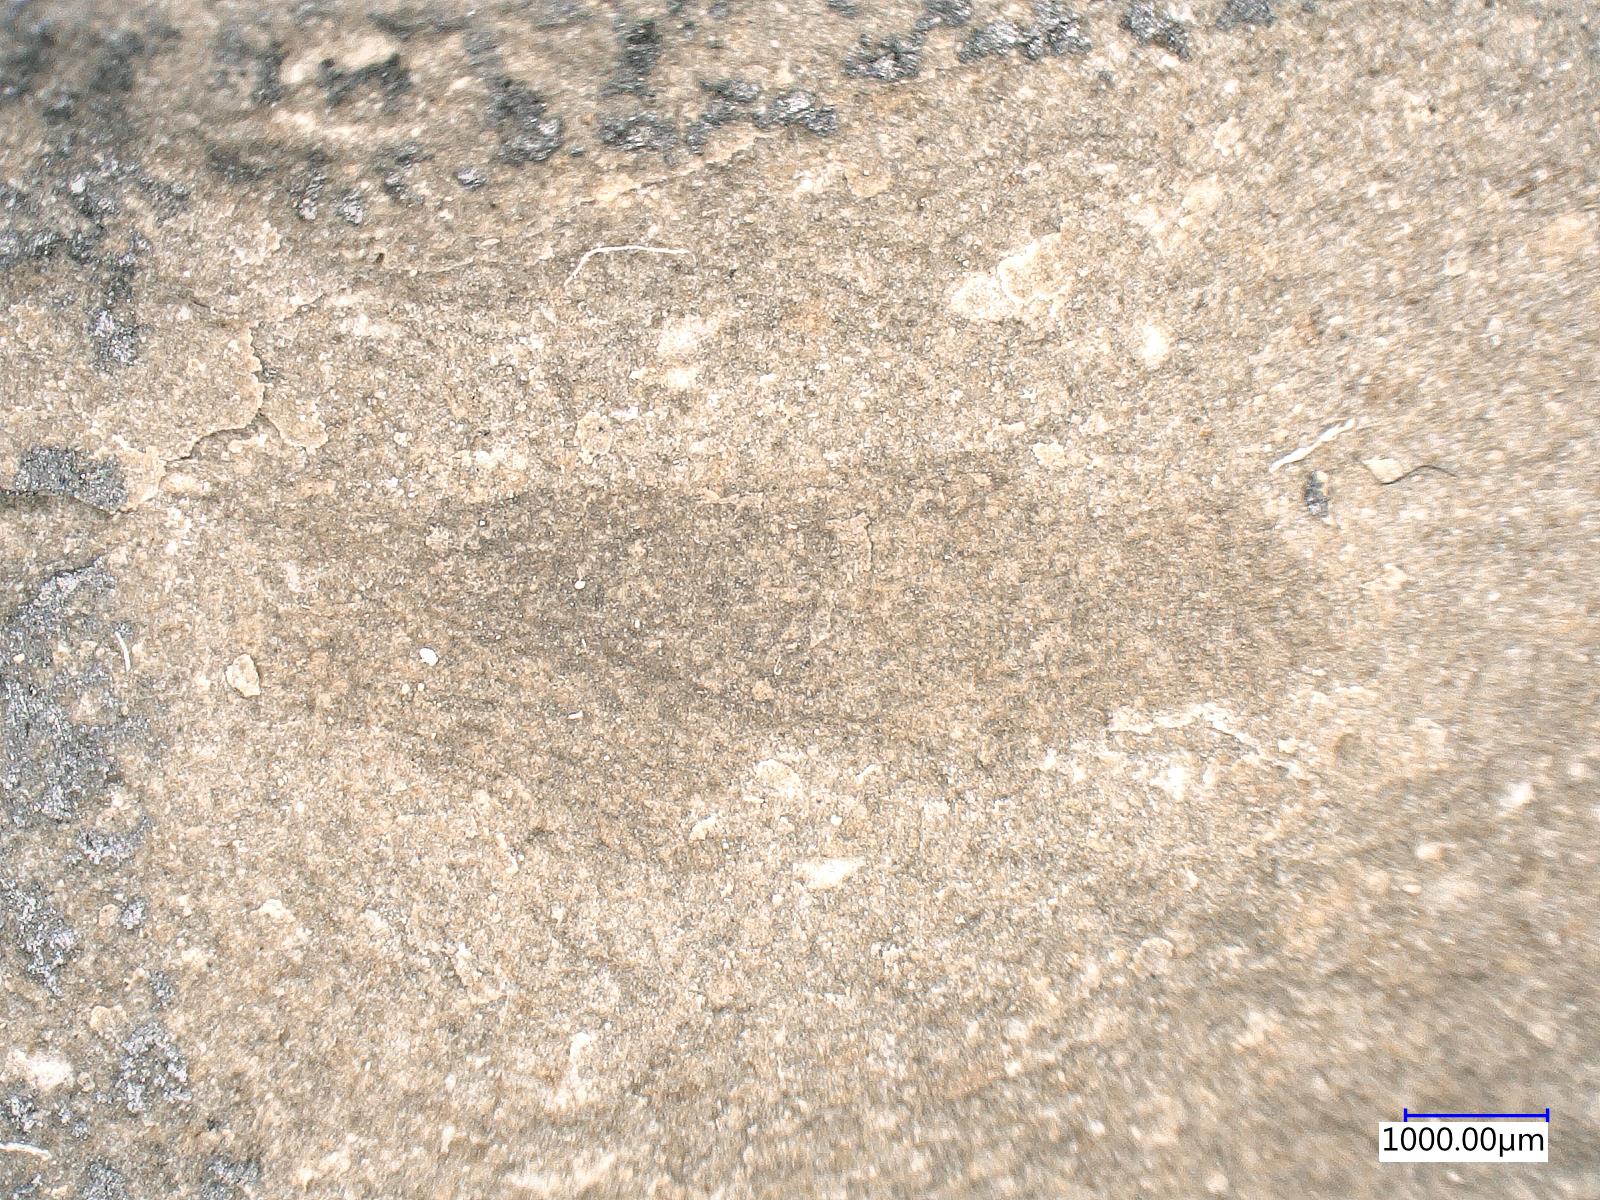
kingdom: Animalia
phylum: Arthropoda
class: Insecta
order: Neuroptera
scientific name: Neuroptera
